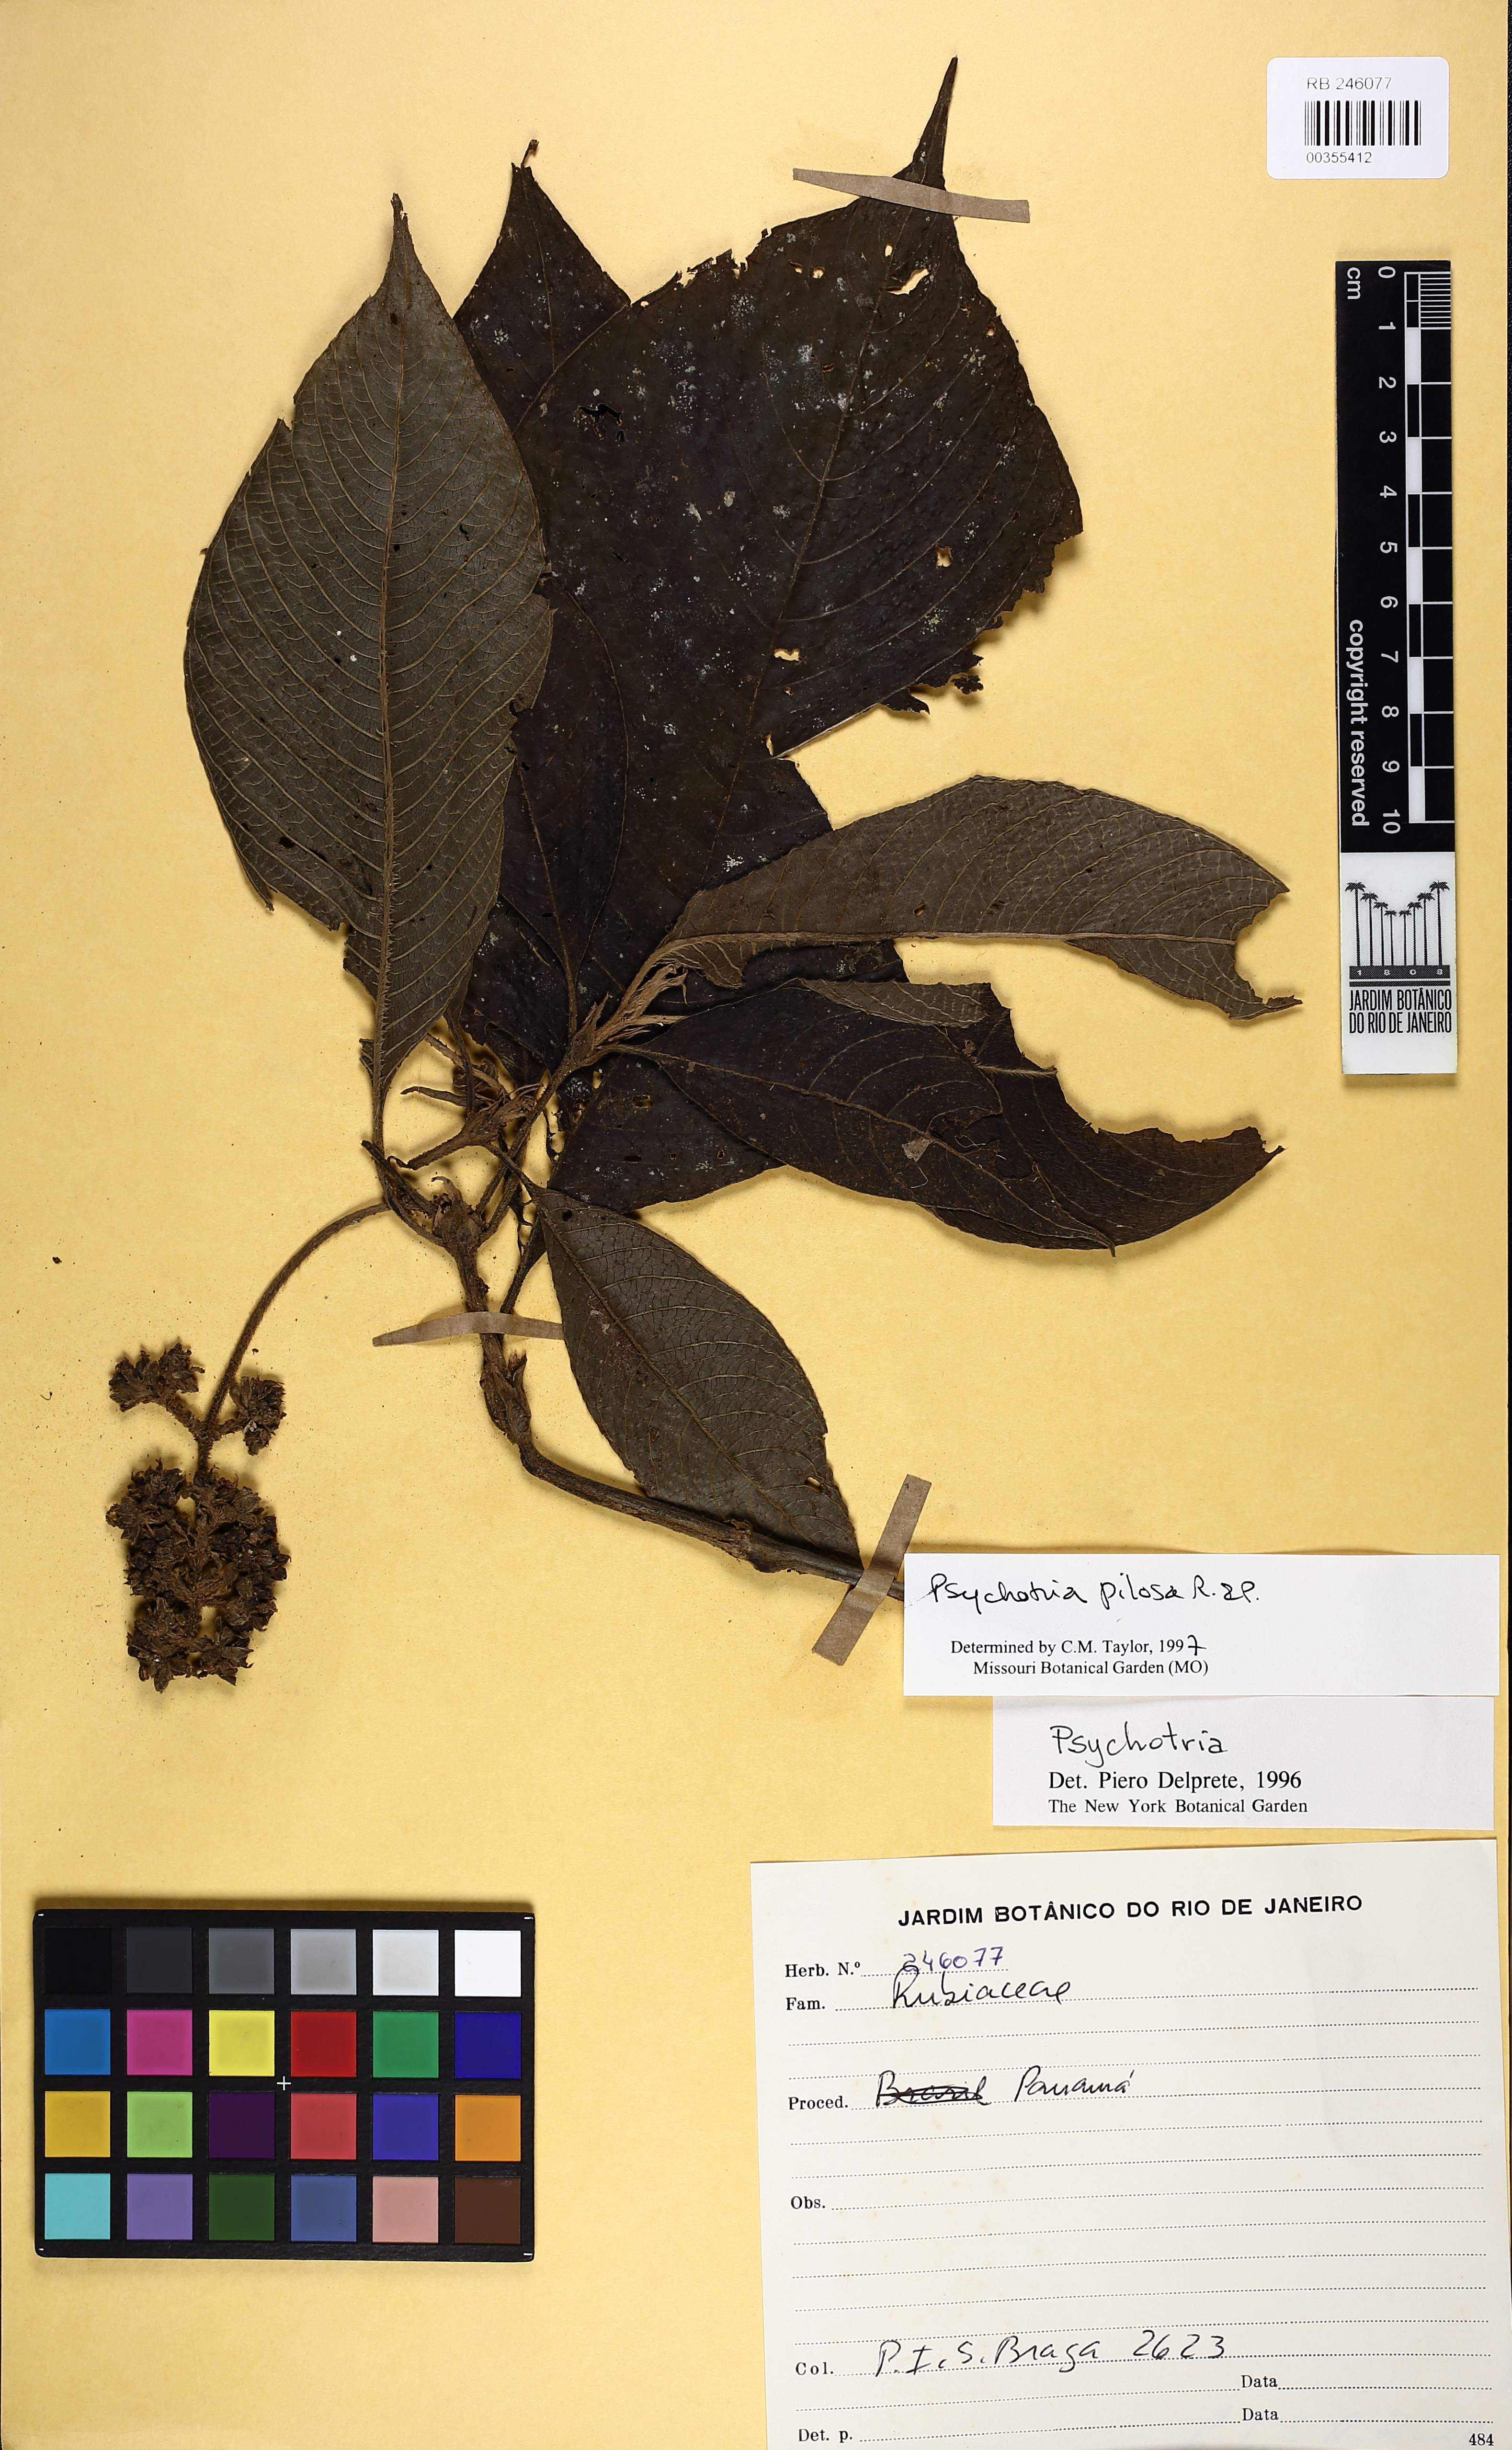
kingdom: Plantae
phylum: Tracheophyta
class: Magnoliopsida
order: Gentianales
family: Rubiaceae
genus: Palicourea
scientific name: Palicourea pilosa
